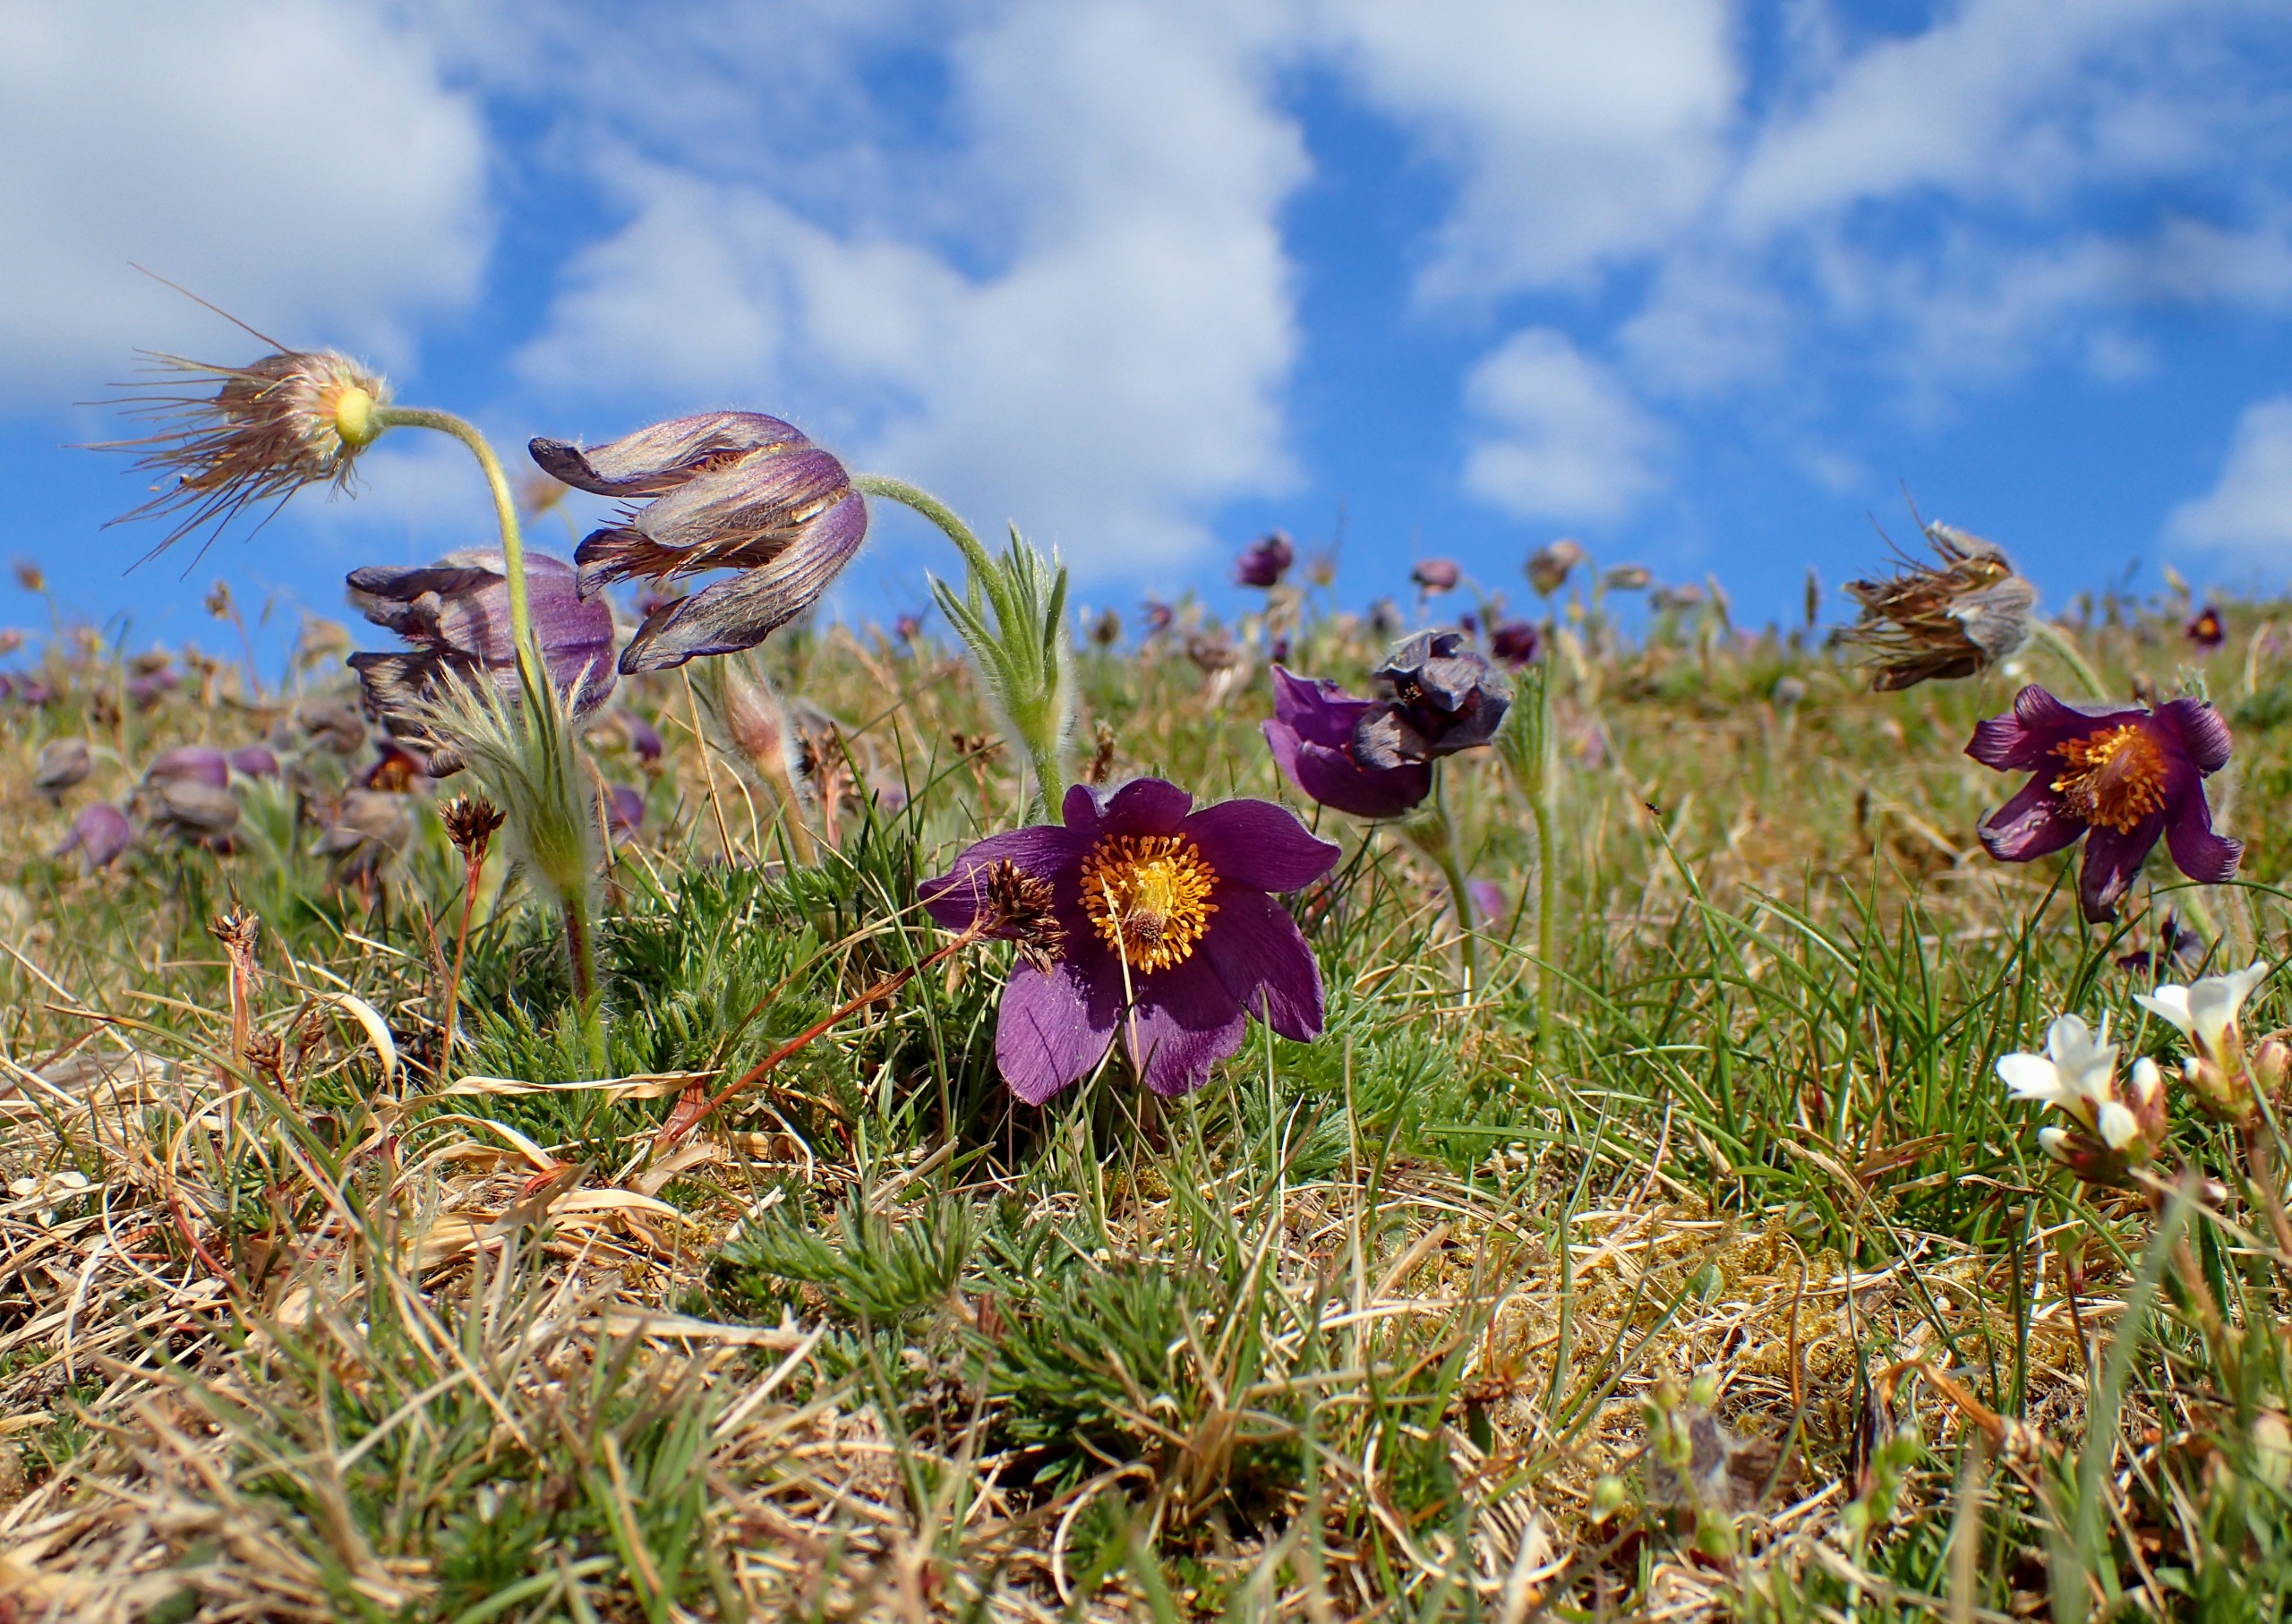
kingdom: Plantae
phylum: Tracheophyta
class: Magnoliopsida
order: Ranunculales
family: Ranunculaceae
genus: Pulsatilla
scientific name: Pulsatilla vulgaris
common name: Opret kobjælde
